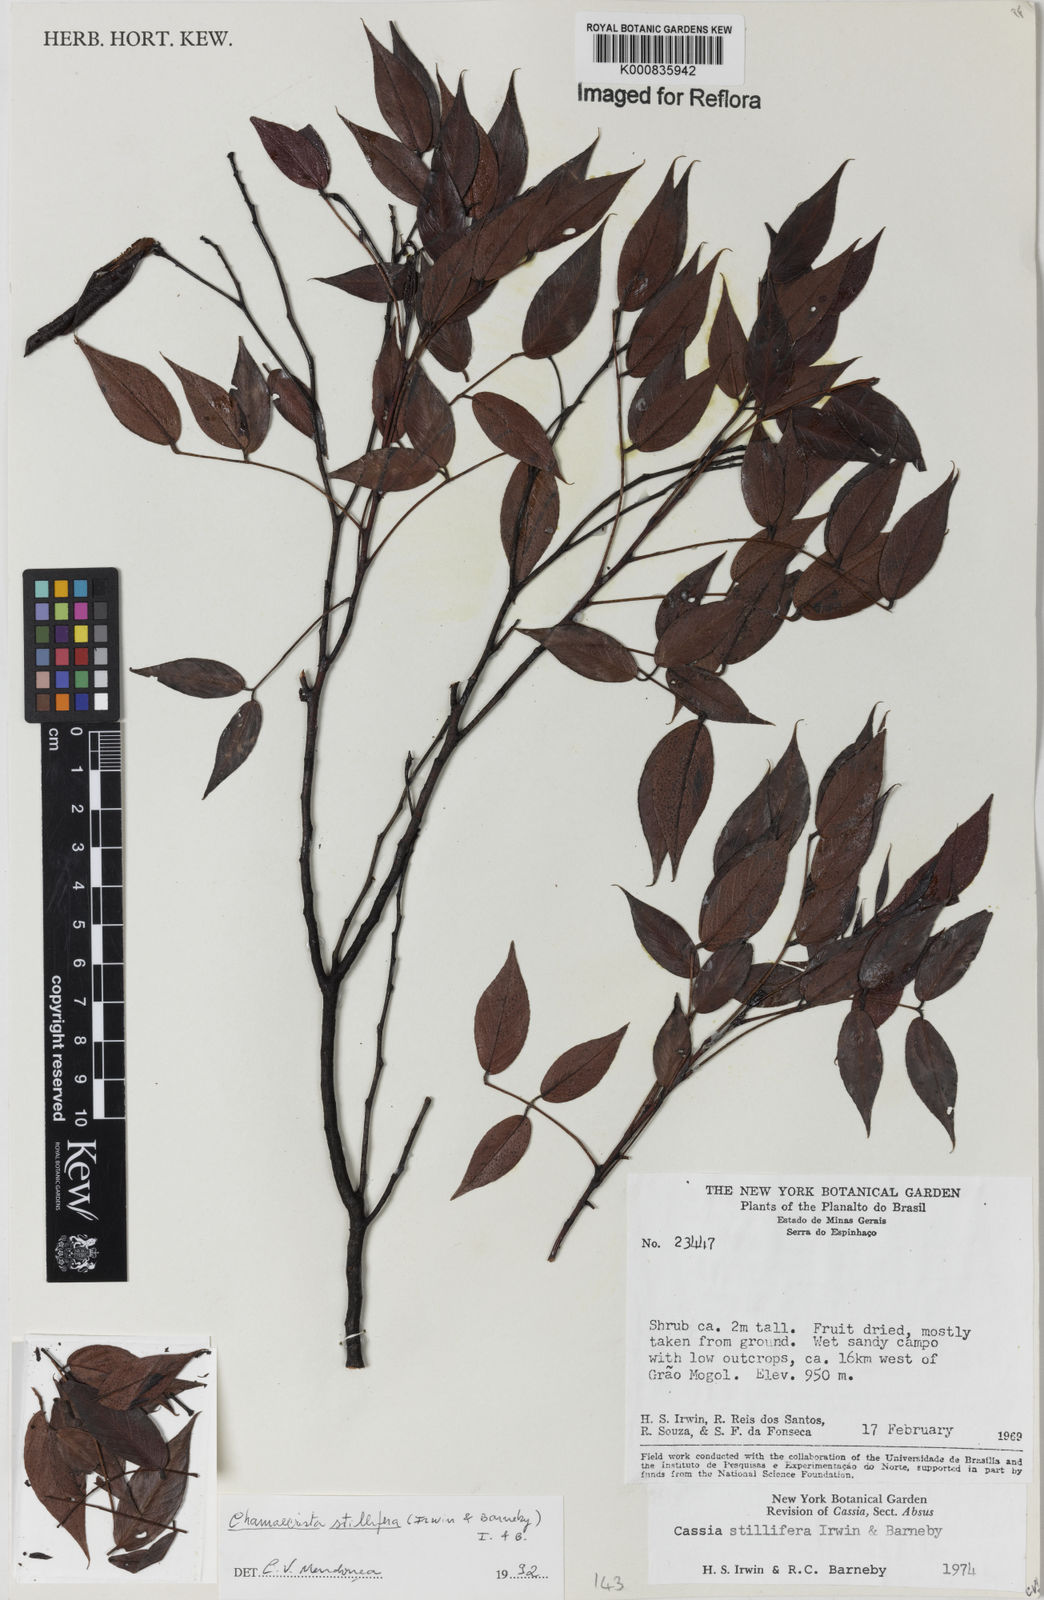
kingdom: Plantae
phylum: Tracheophyta
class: Magnoliopsida
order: Fabales
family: Fabaceae
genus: Chamaecrista
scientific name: Chamaecrista stillifera
